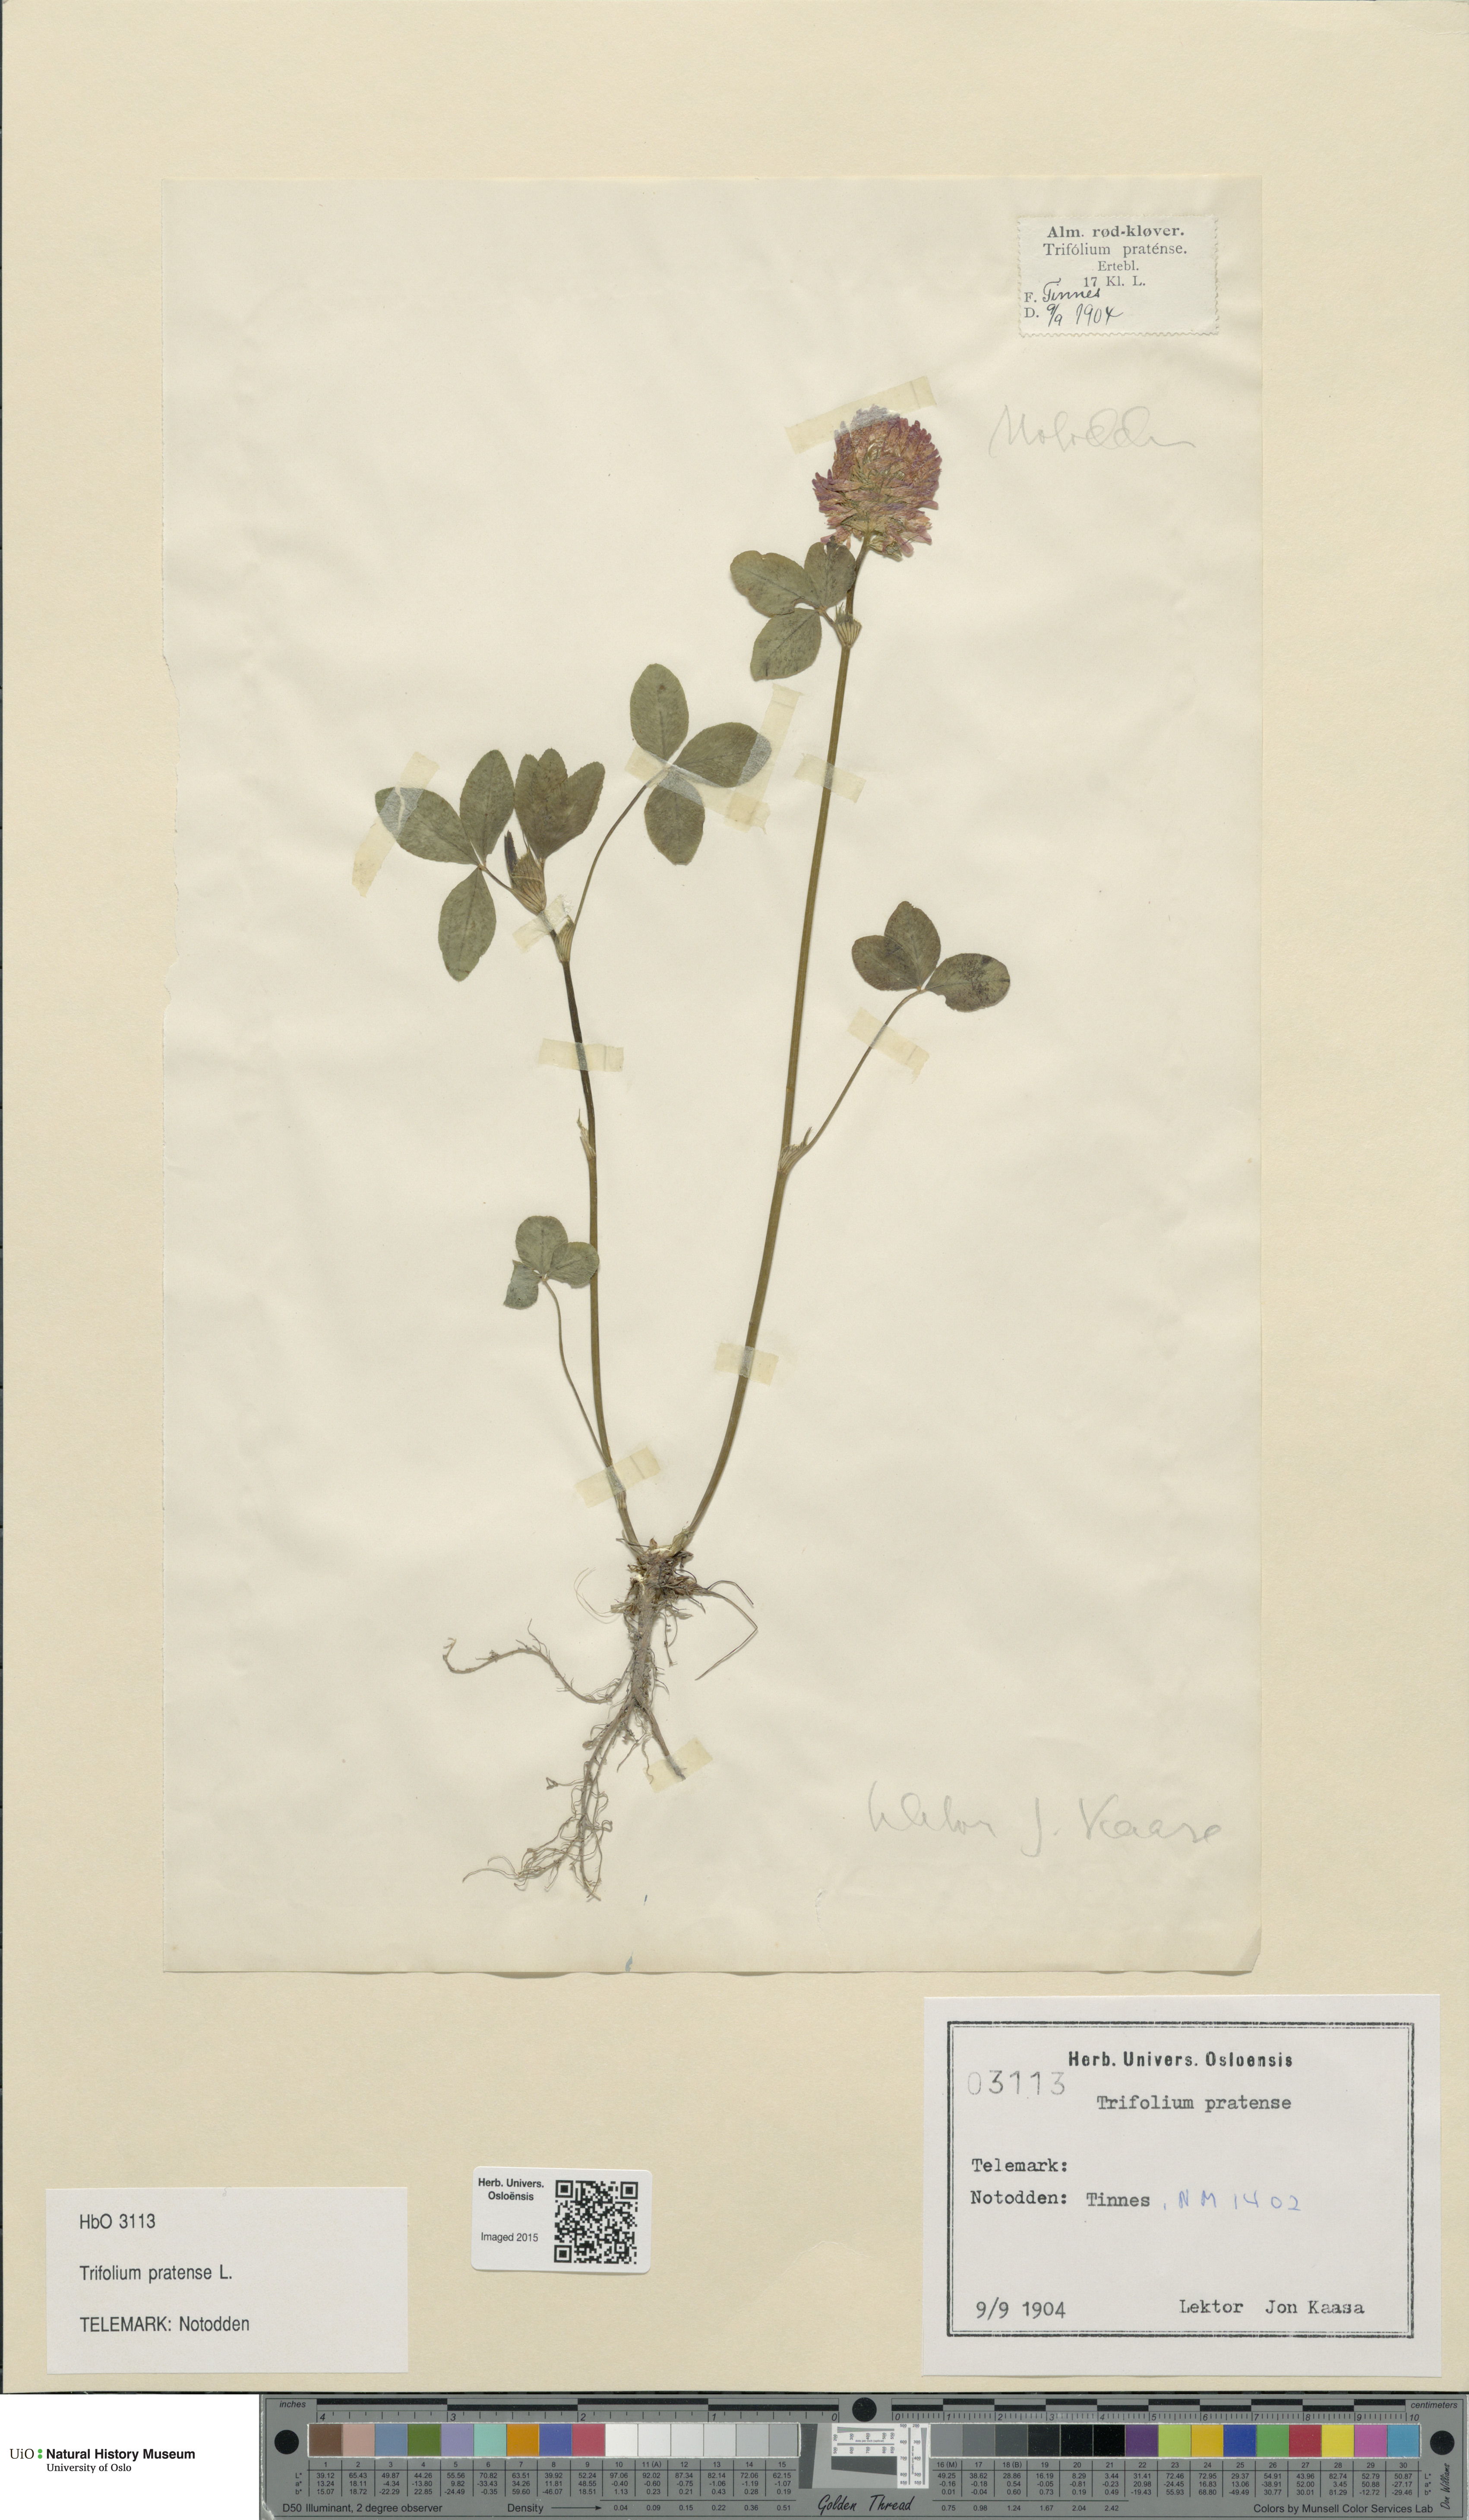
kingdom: Plantae
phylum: Tracheophyta
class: Magnoliopsida
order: Fabales
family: Fabaceae
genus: Trifolium
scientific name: Trifolium pratense
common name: Red clover
